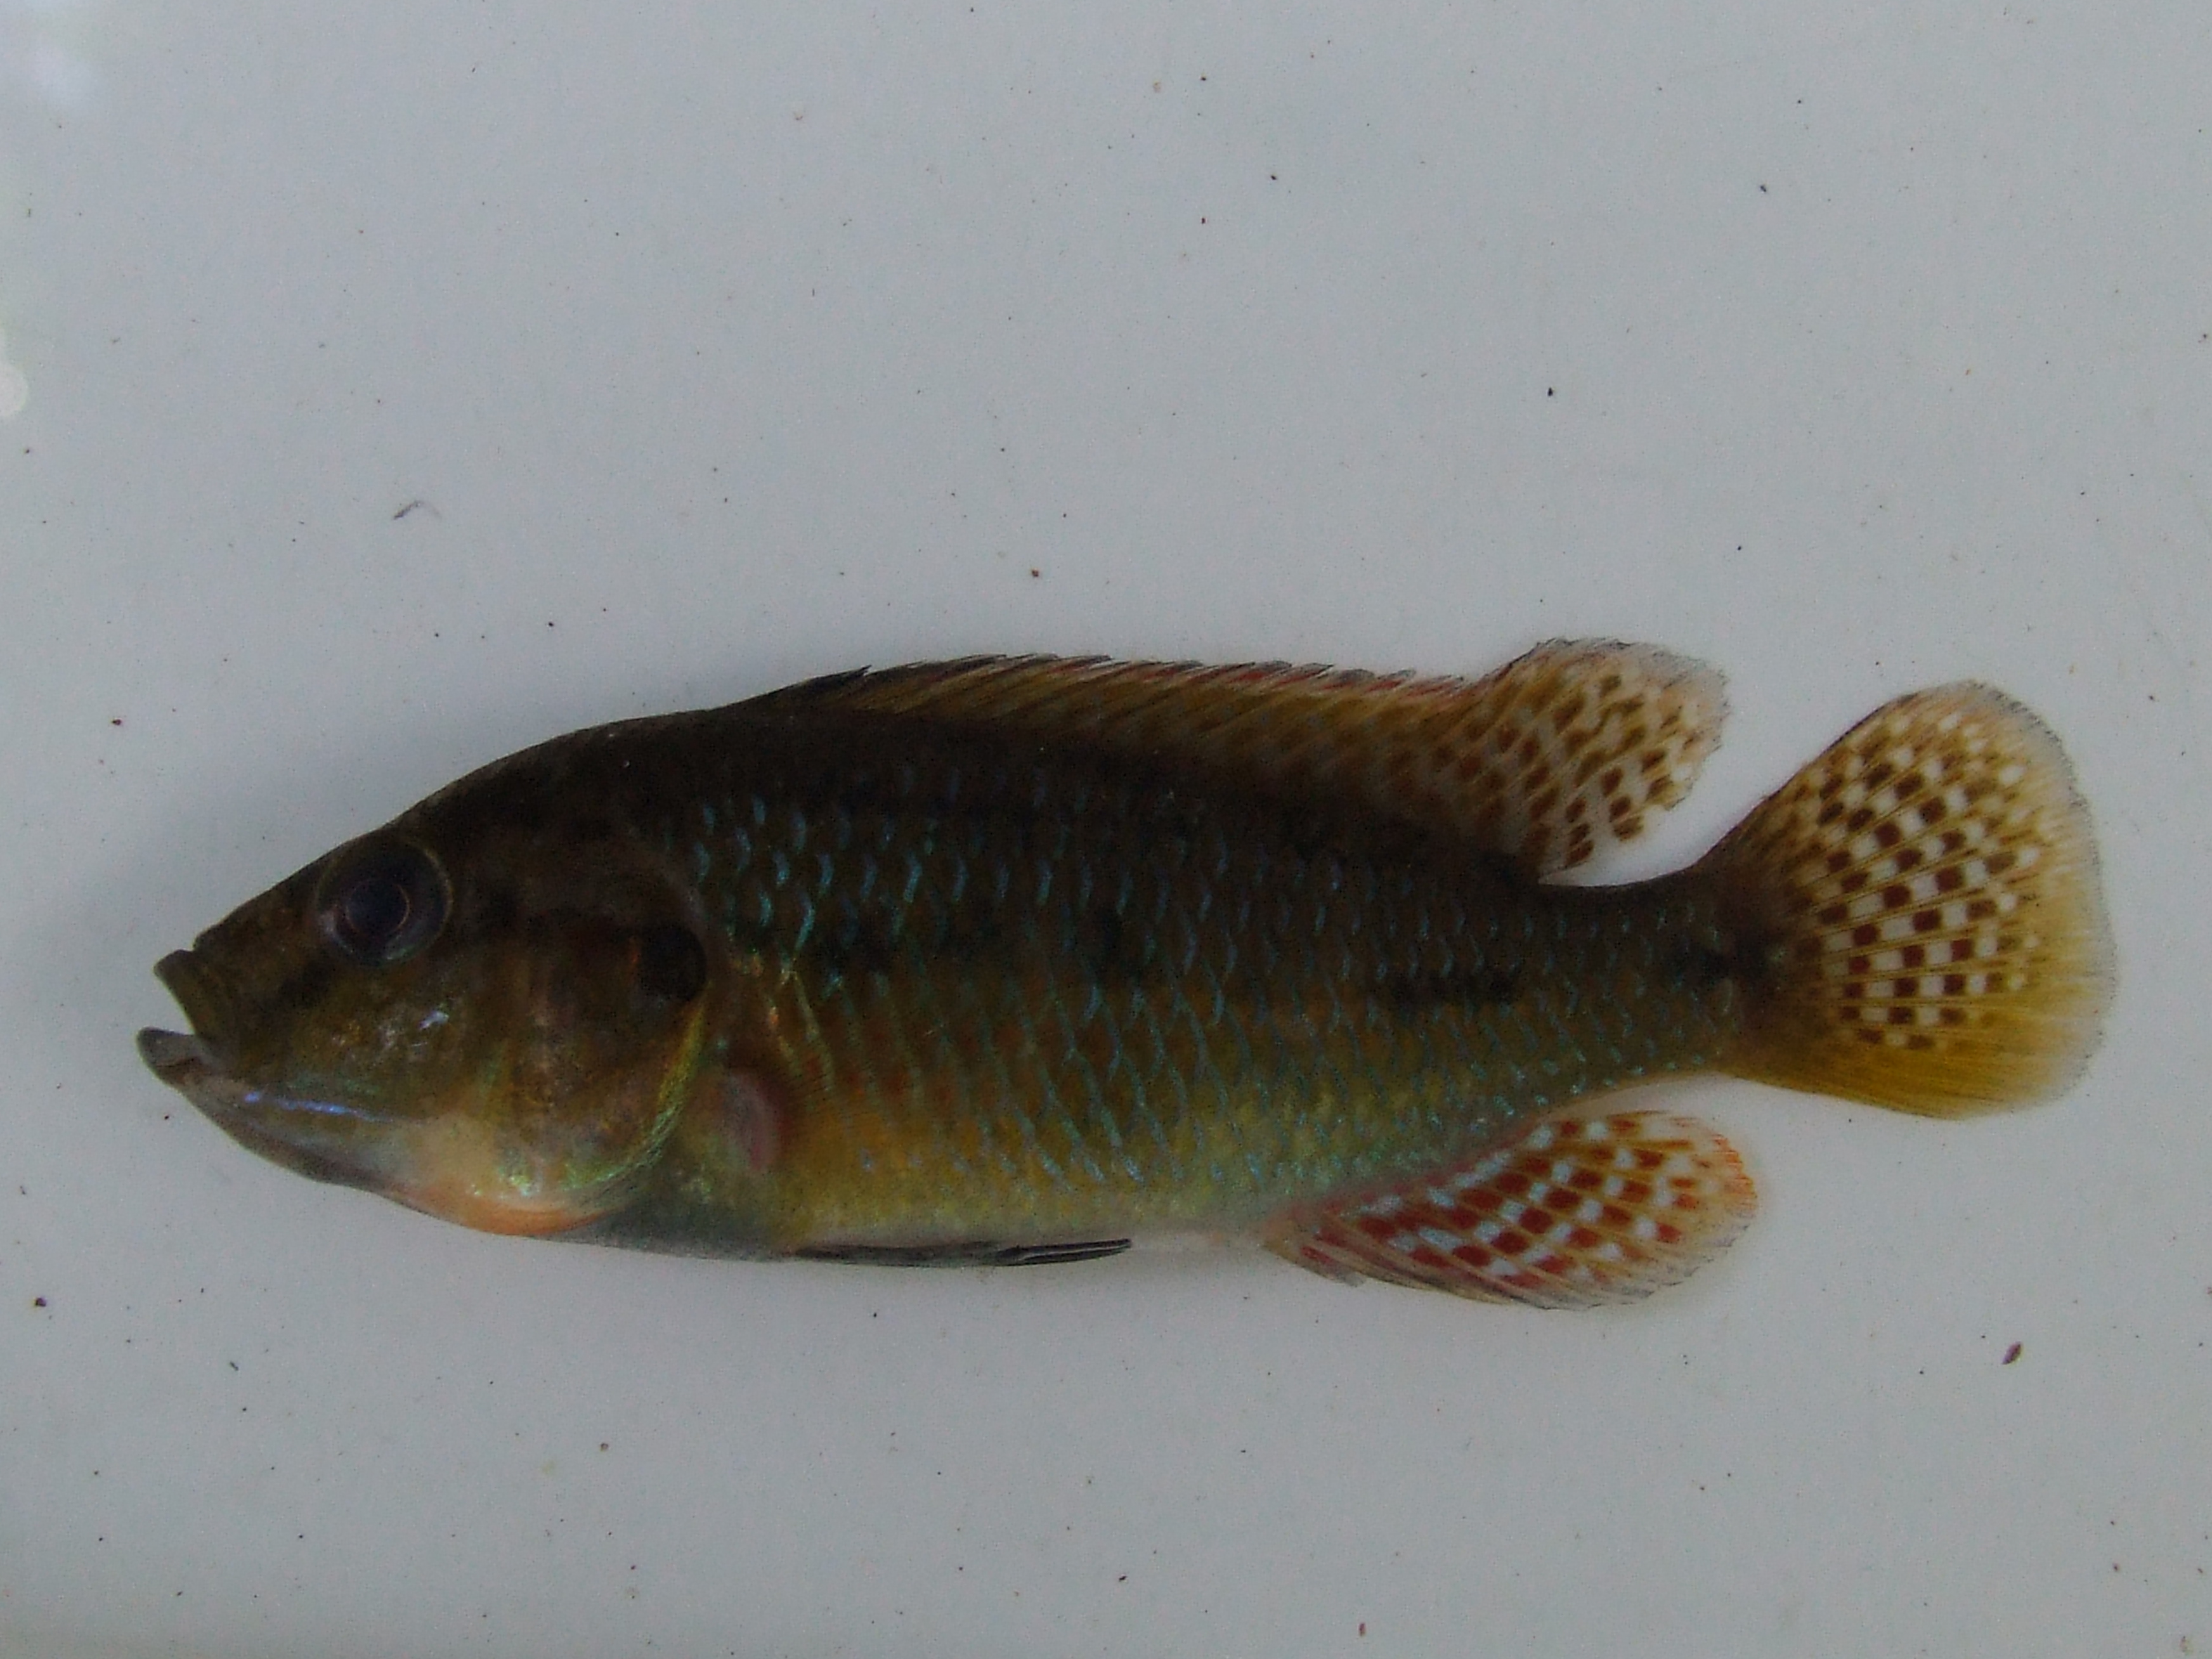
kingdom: Animalia
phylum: Chordata
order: Perciformes
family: Cichlidae
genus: Pseudocrenilabrus
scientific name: Pseudocrenilabrus philander
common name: Southern mouthbrooder
